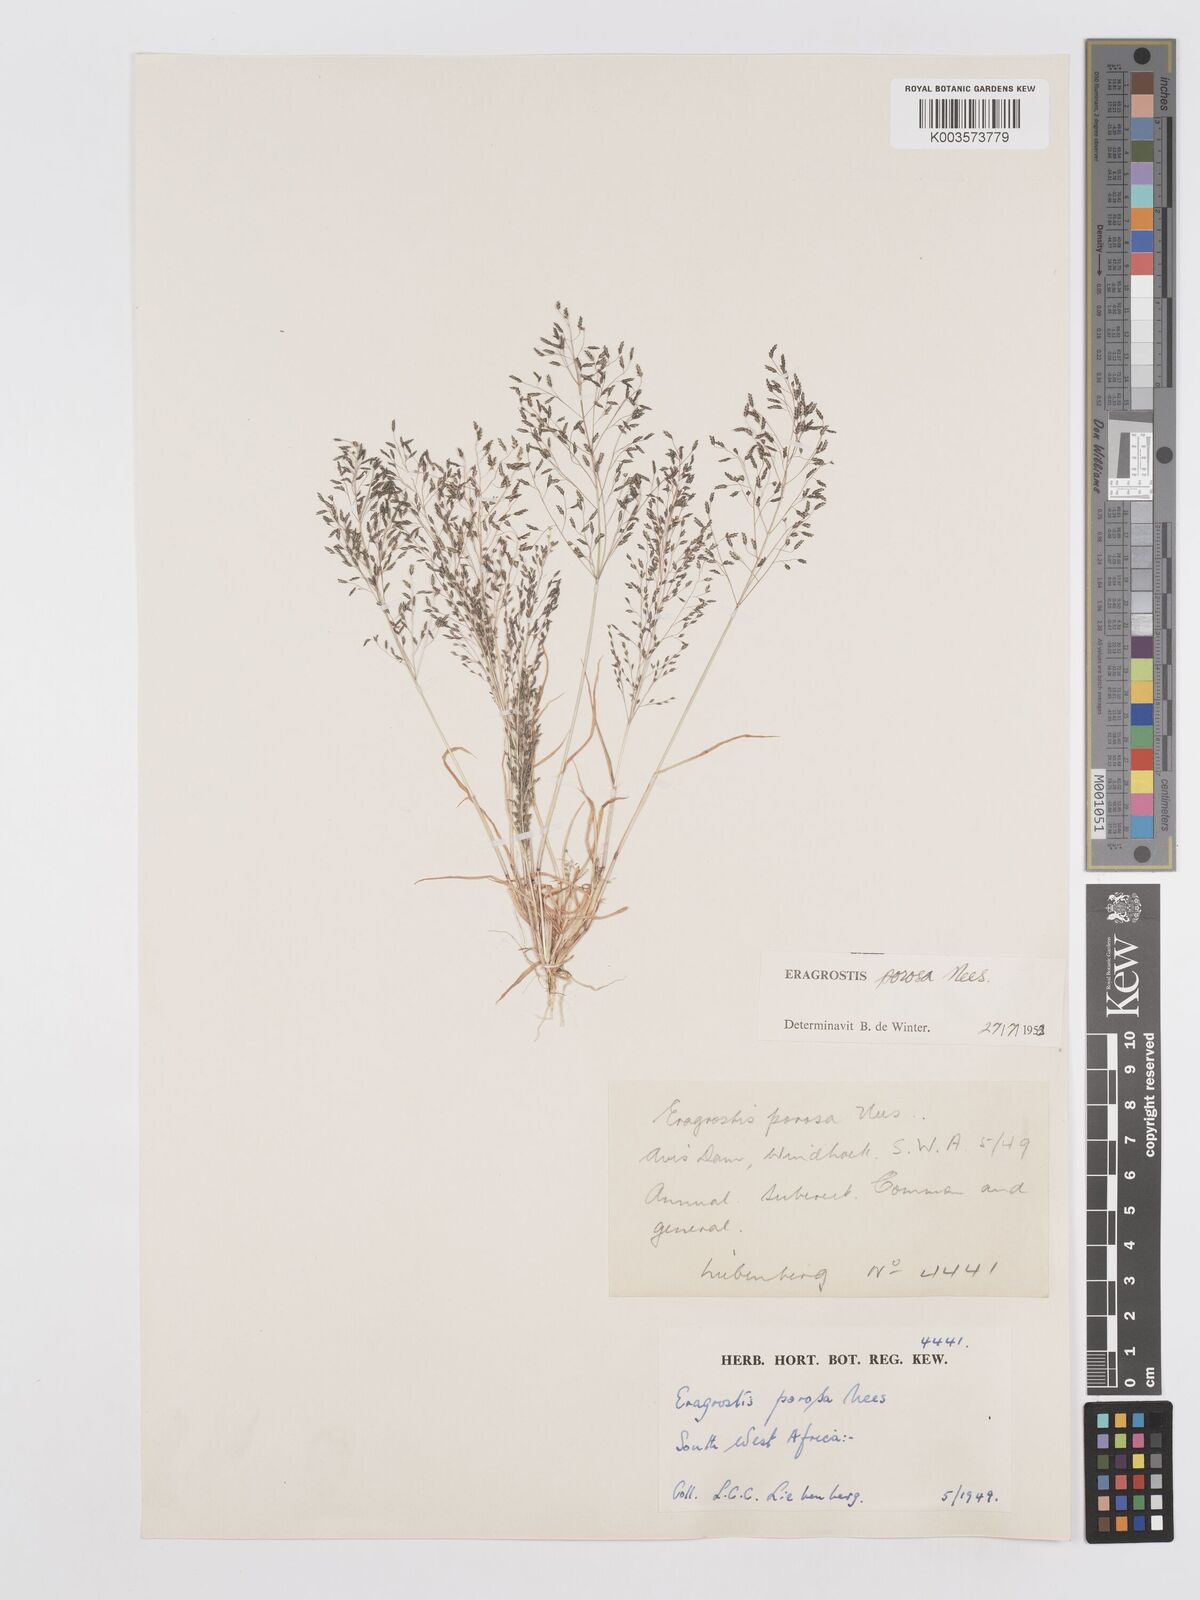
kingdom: Plantae
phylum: Tracheophyta
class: Liliopsida
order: Poales
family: Poaceae
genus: Eragrostis
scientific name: Eragrostis porosa
